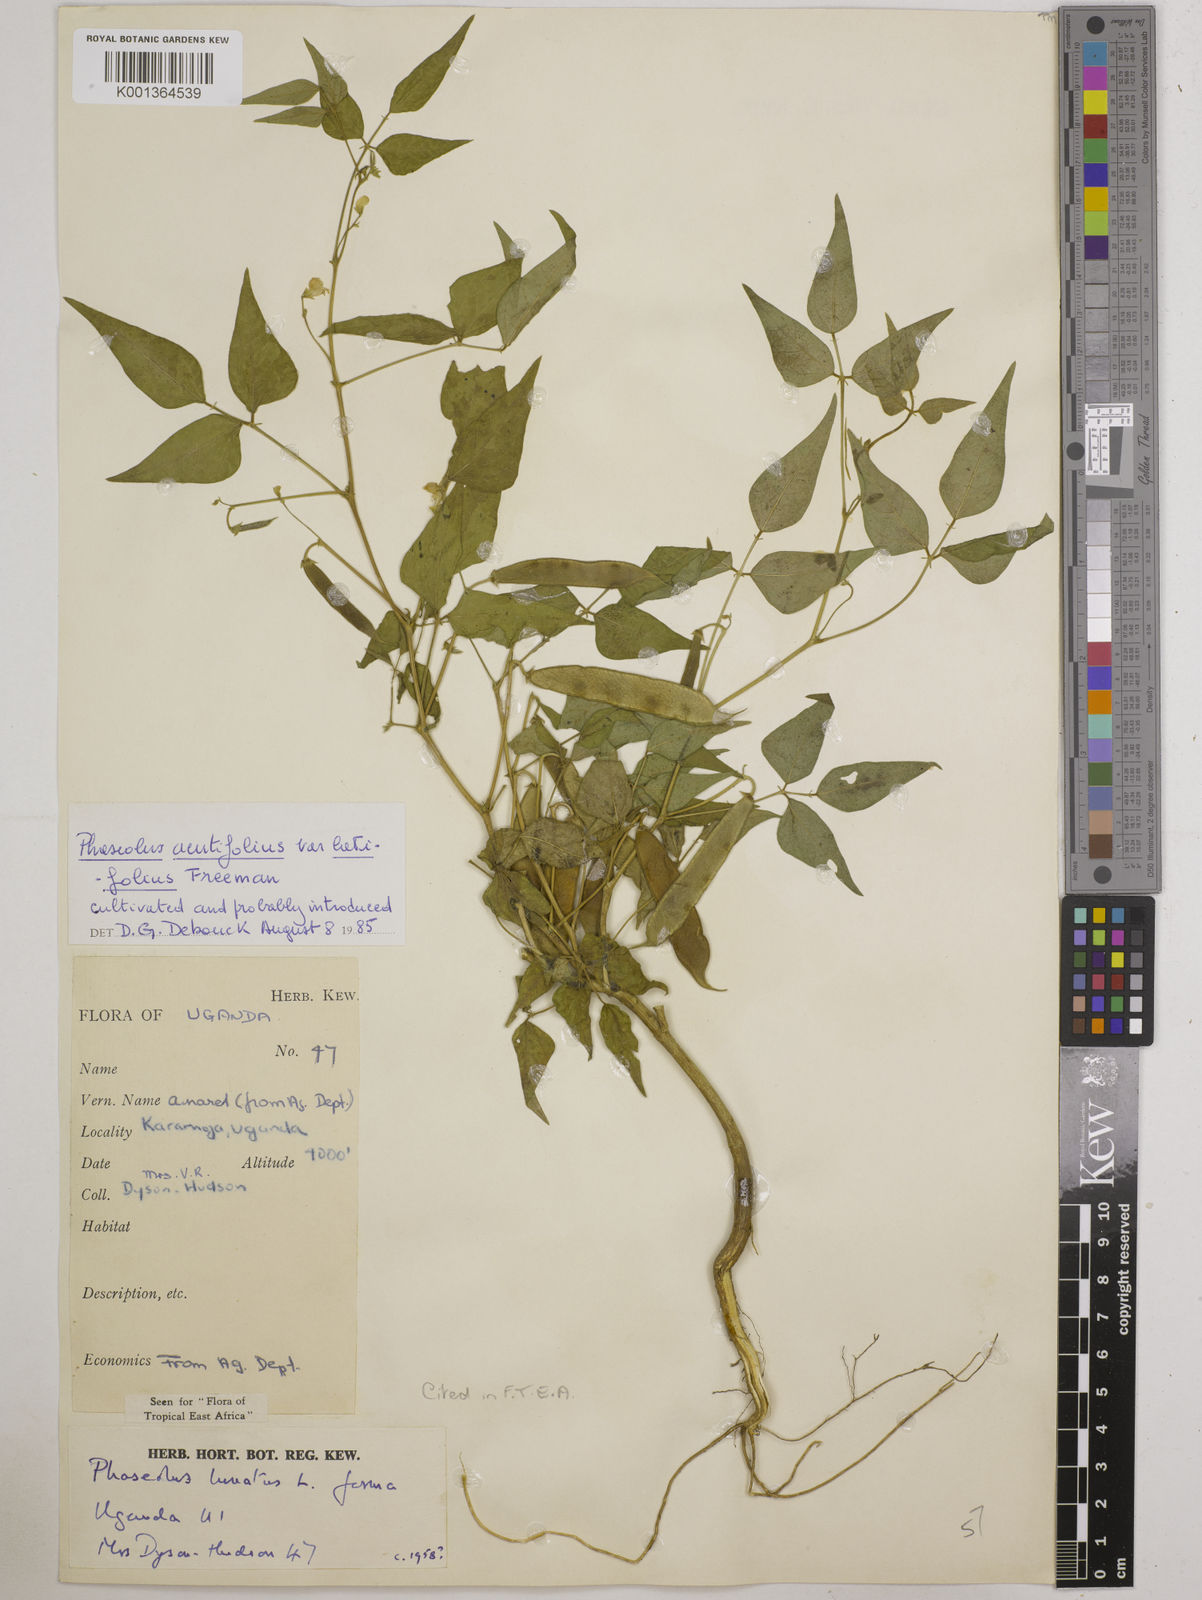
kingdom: Plantae
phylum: Tracheophyta
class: Magnoliopsida
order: Fabales
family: Fabaceae
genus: Phaseolus
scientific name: Phaseolus acutifolius
